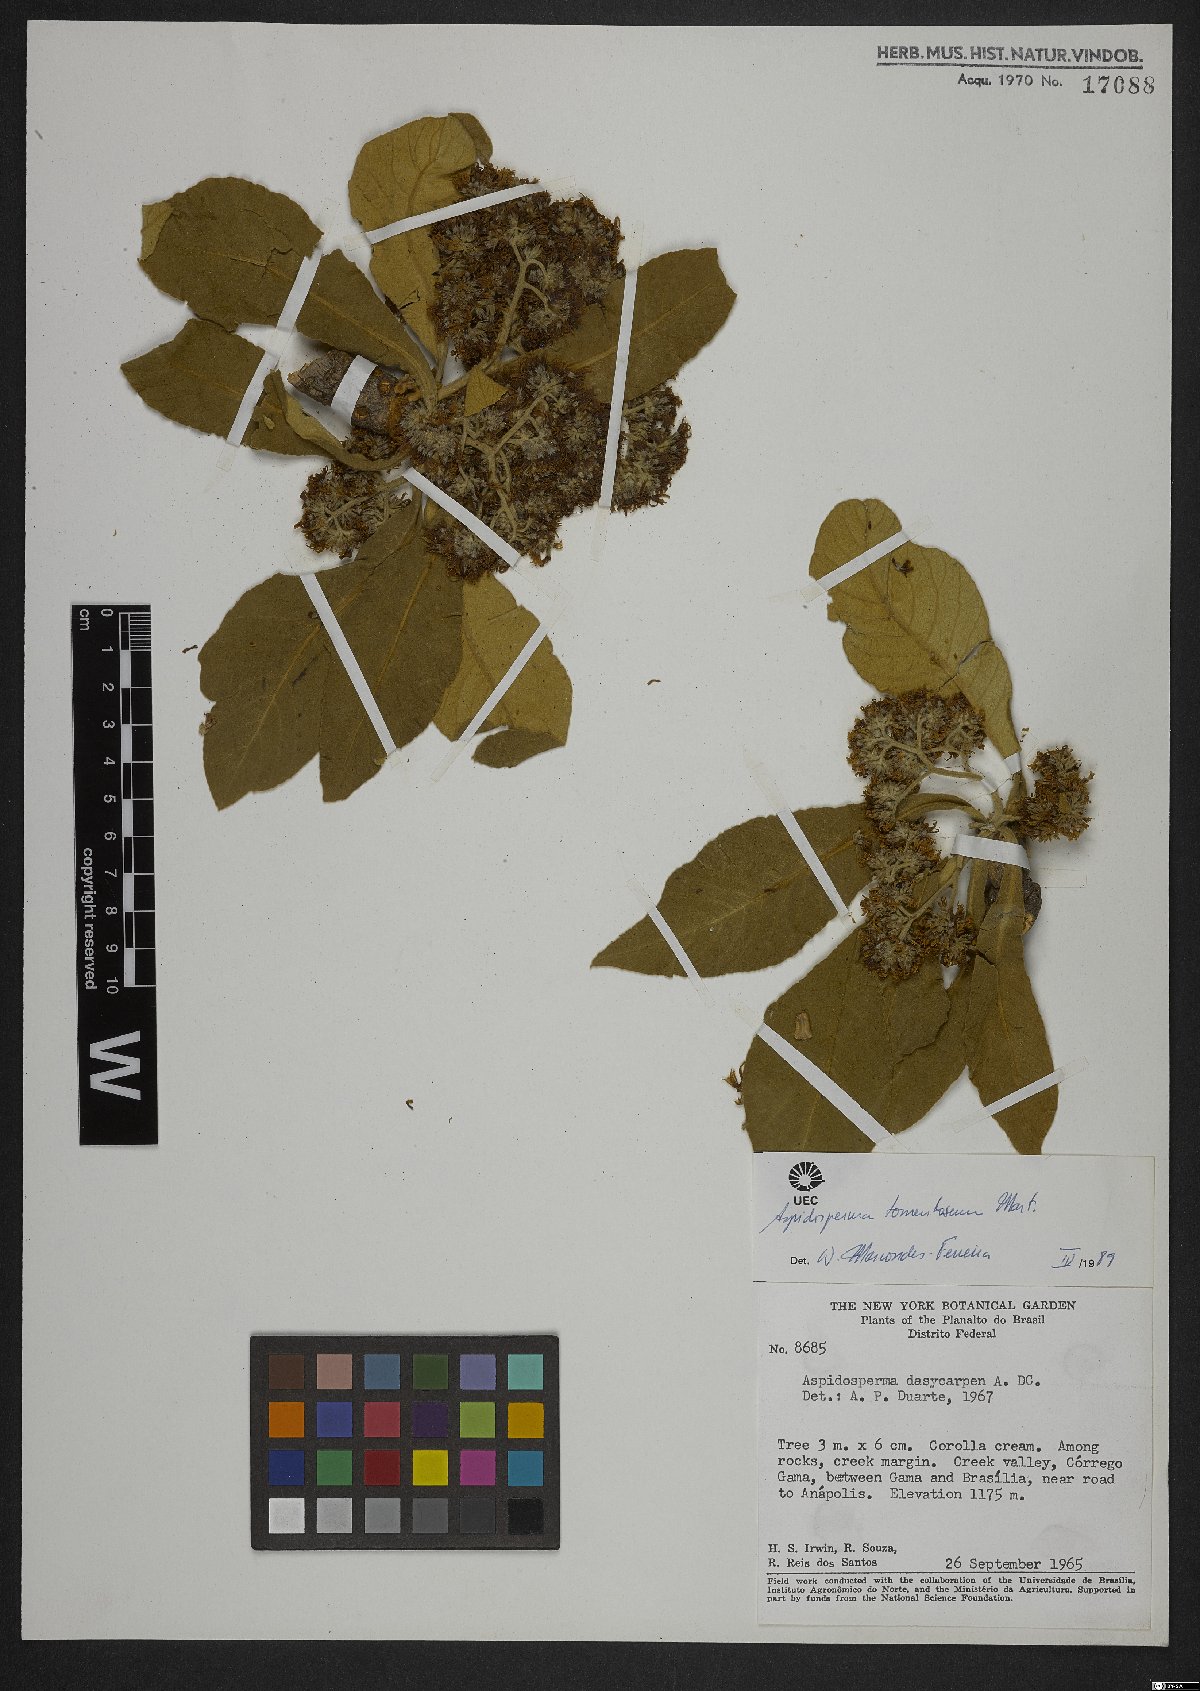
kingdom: Plantae
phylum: Tracheophyta
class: Magnoliopsida
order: Gentianales
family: Apocynaceae
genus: Aspidosperma
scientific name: Aspidosperma tomentosum
